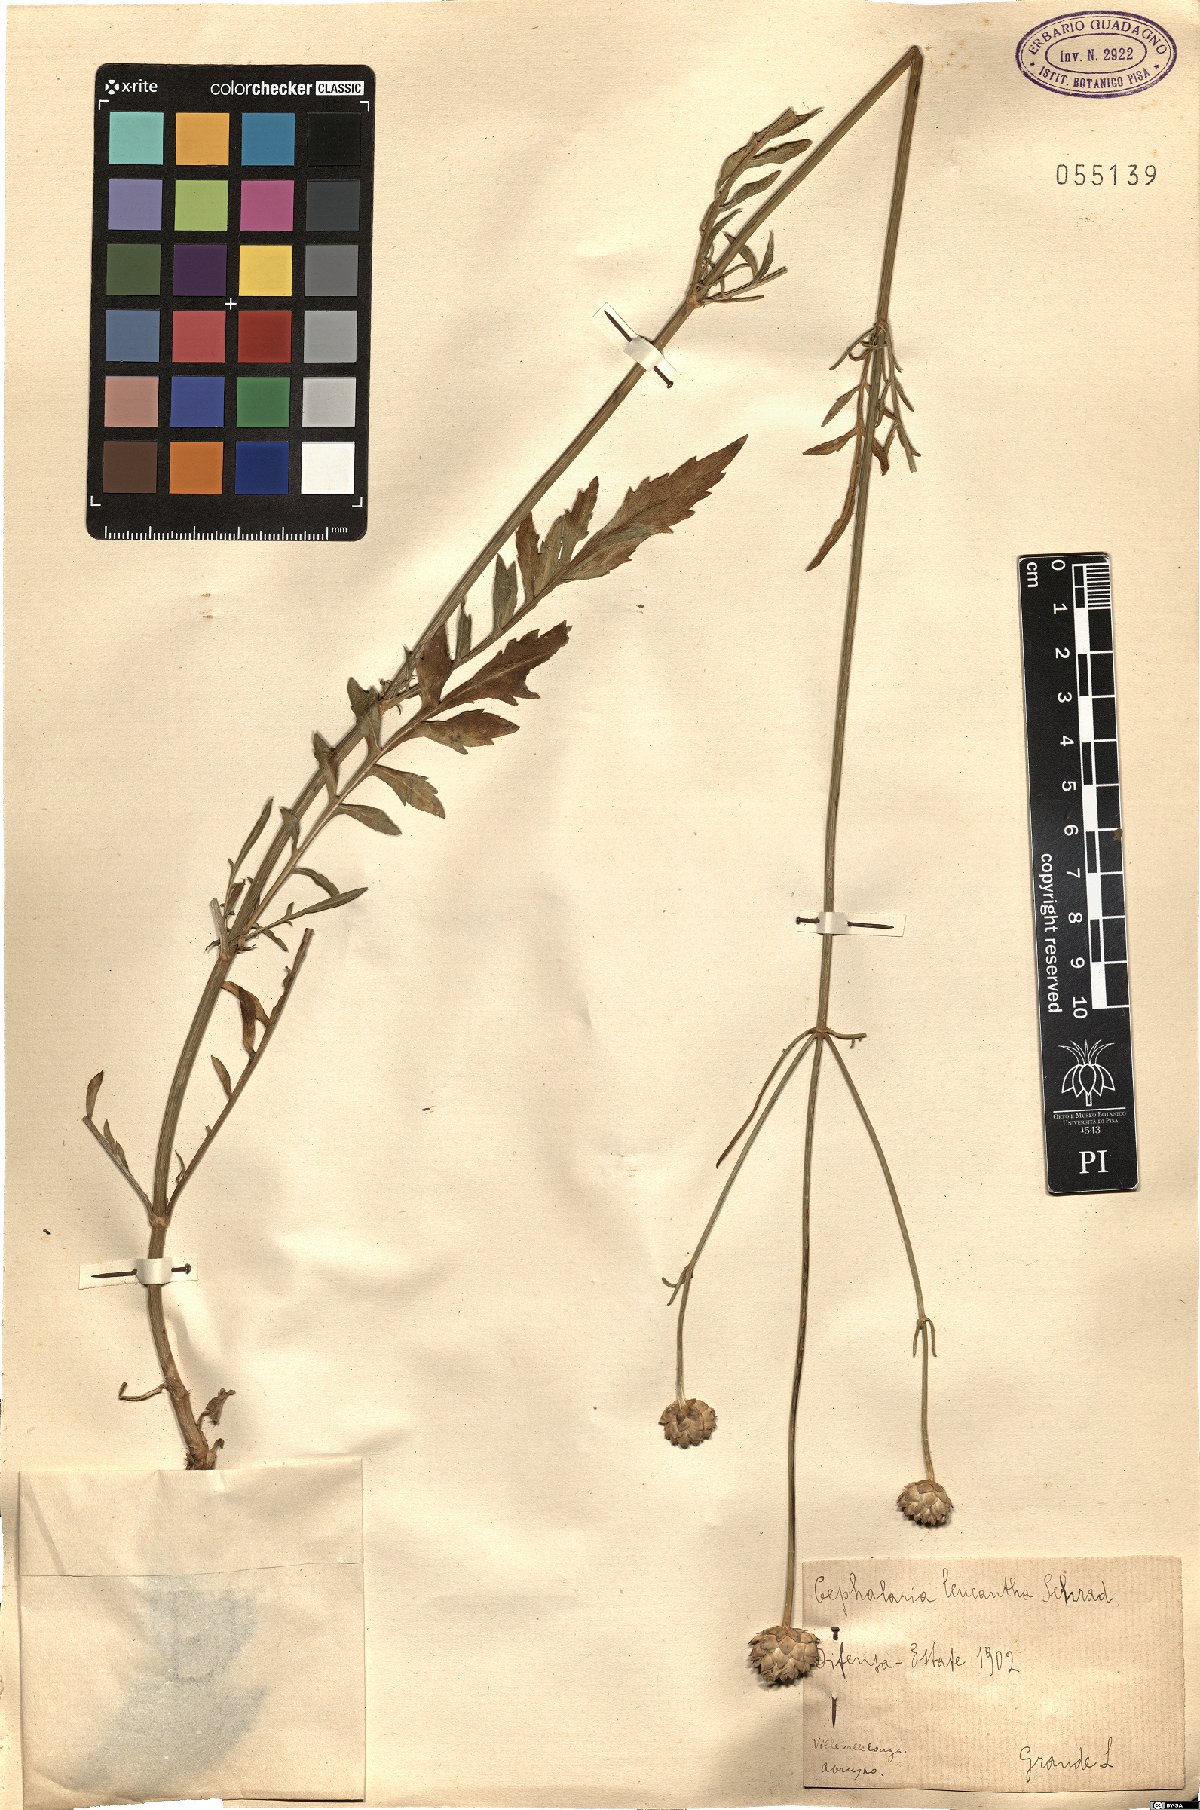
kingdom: Plantae
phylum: Tracheophyta
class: Magnoliopsida
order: Dipsacales
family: Caprifoliaceae
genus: Cephalaria
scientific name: Cephalaria leucantha
